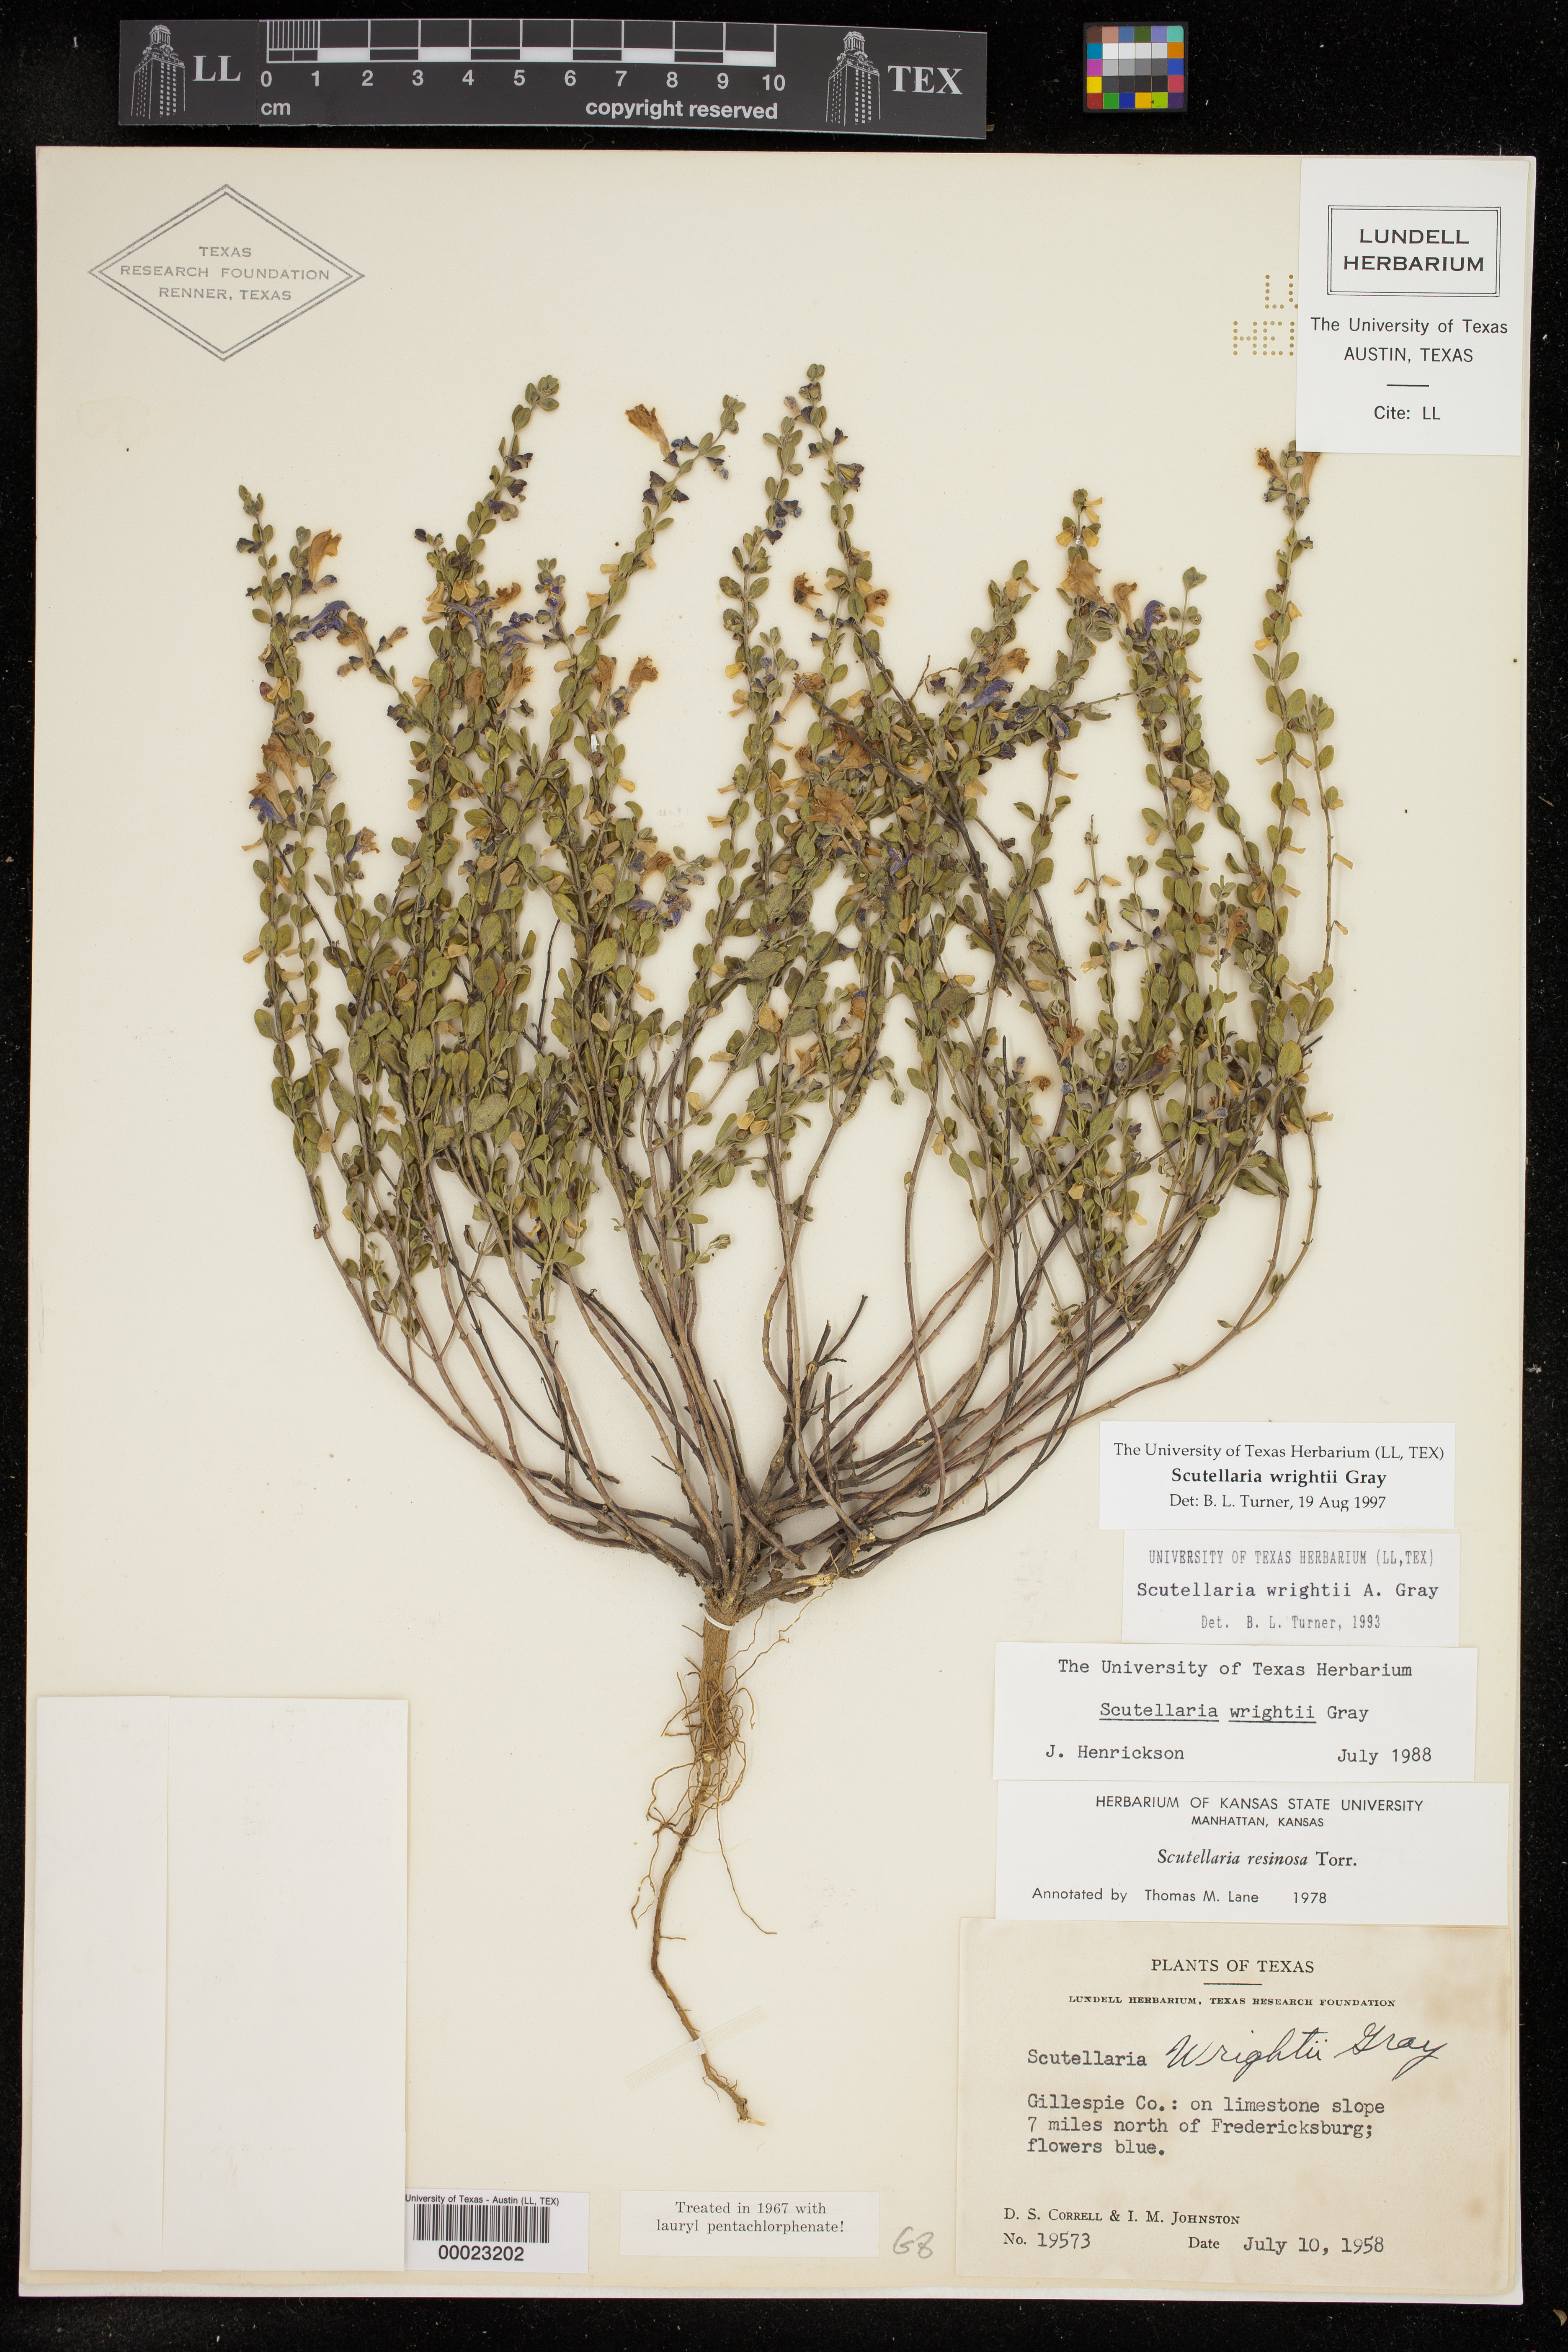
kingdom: Plantae
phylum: Tracheophyta
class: Magnoliopsida
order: Lamiales
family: Lamiaceae
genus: Scutellaria
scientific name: Scutellaria wrightii
